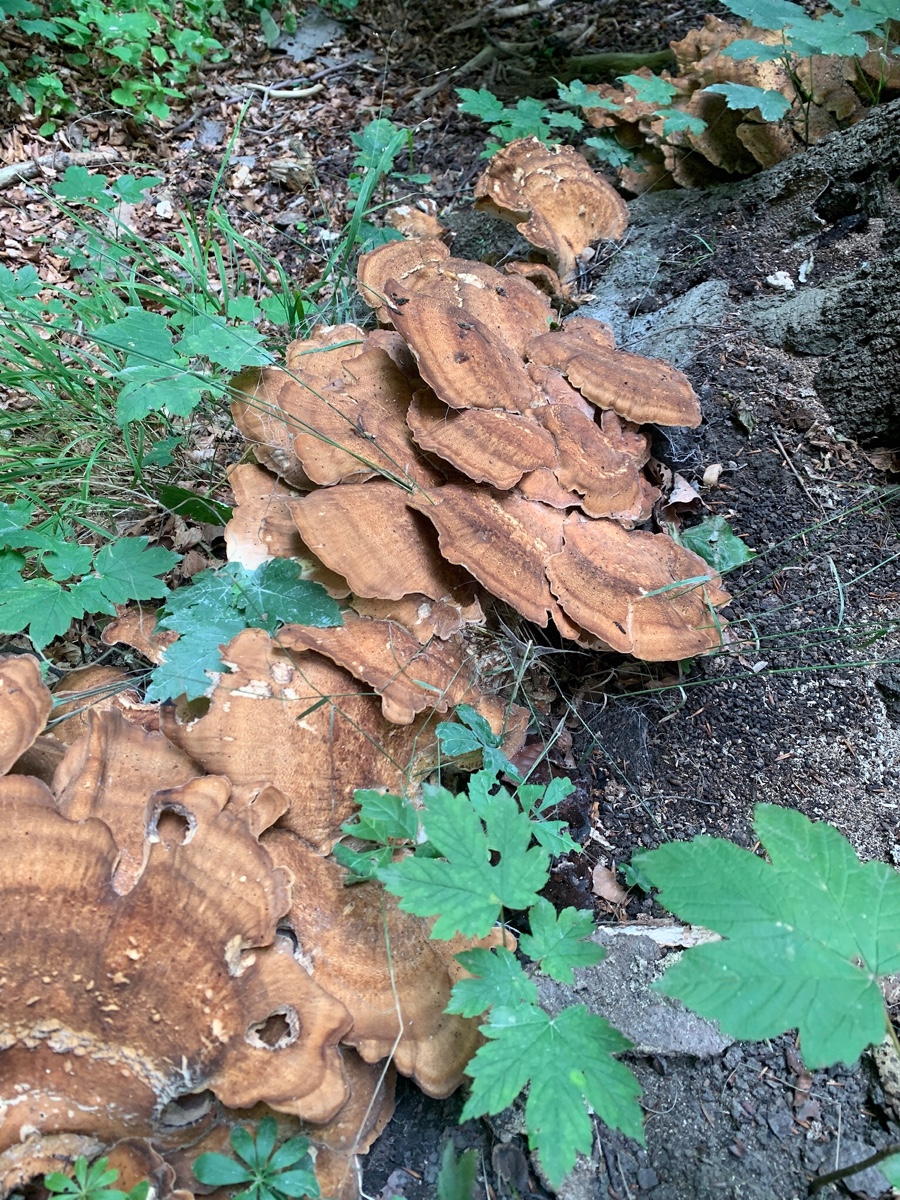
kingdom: Fungi
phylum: Basidiomycota
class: Agaricomycetes
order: Polyporales
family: Meripilaceae
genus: Meripilus
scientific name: Meripilus giganteus
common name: kæmpeporesvamp
